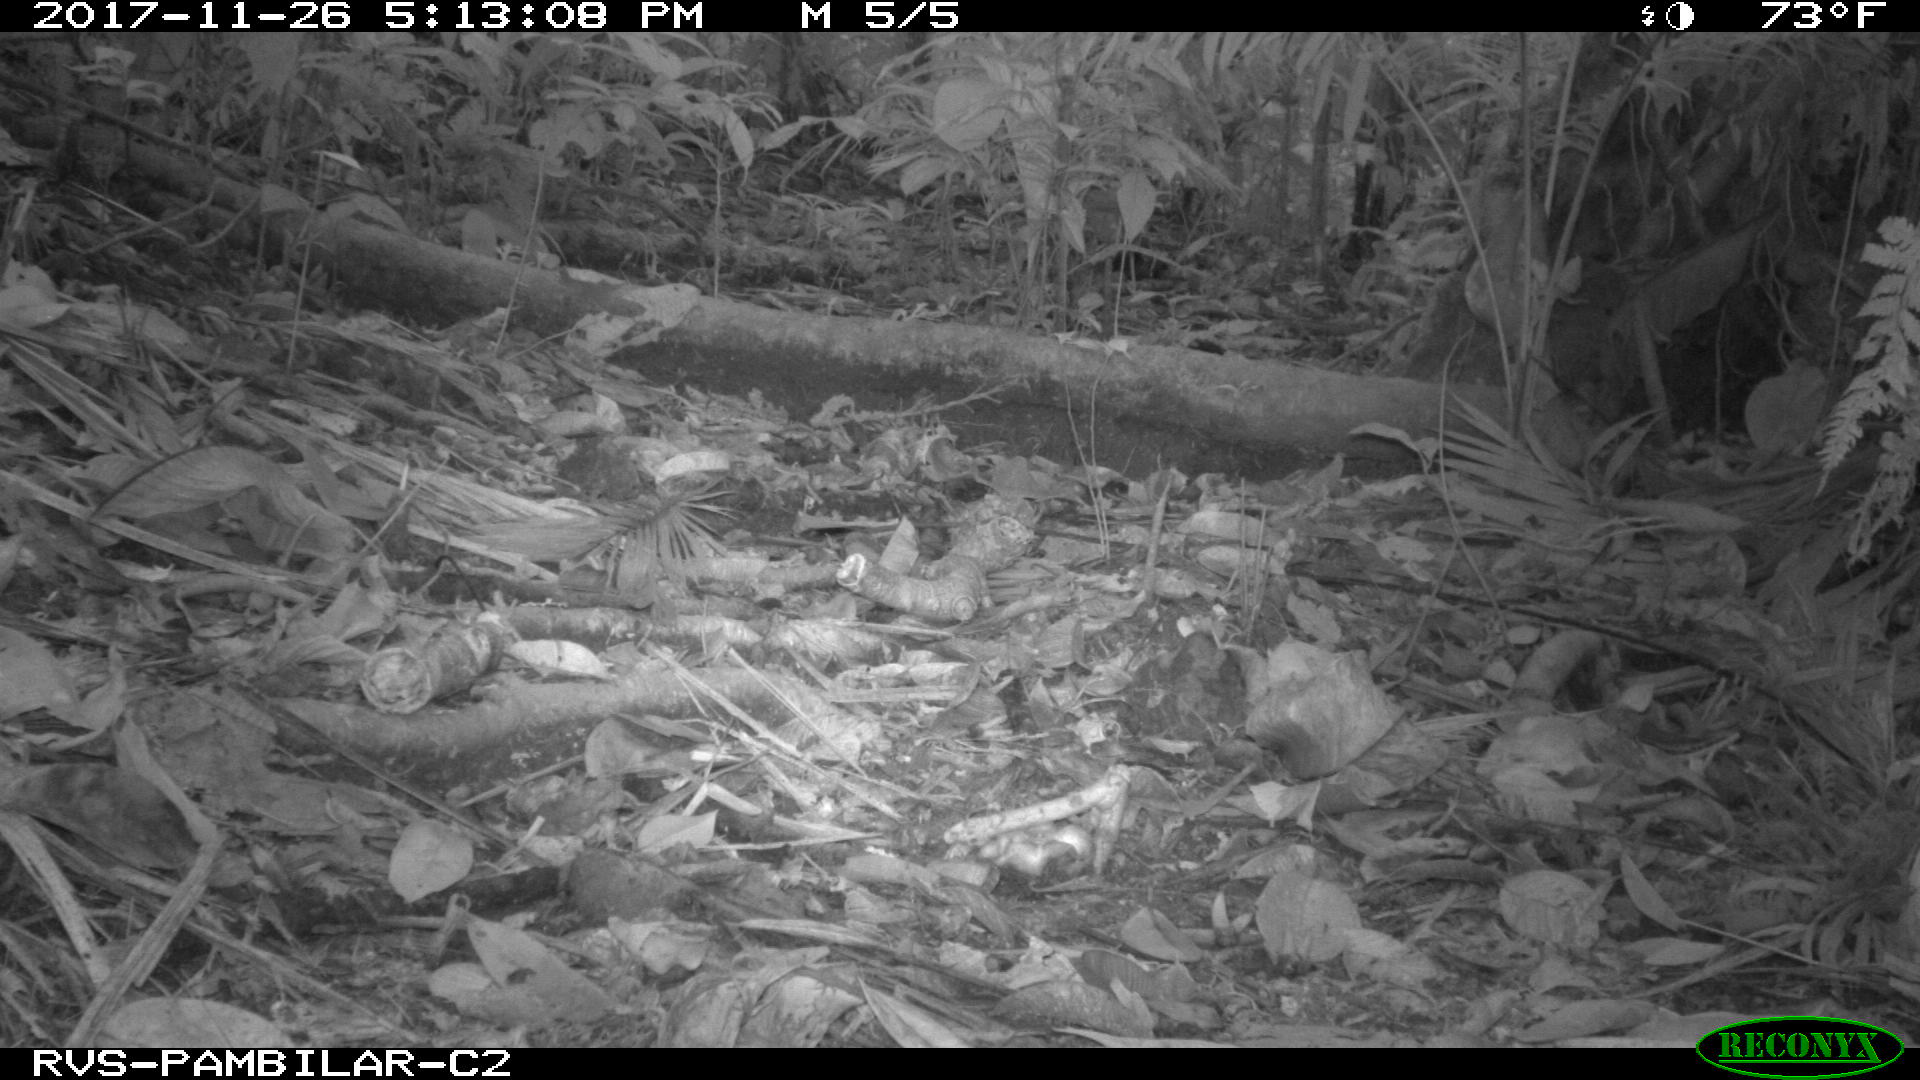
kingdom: Animalia
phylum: Chordata
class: Mammalia
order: Rodentia
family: Dasyproctidae
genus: Dasyprocta
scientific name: Dasyprocta punctata
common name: Central american agouti
